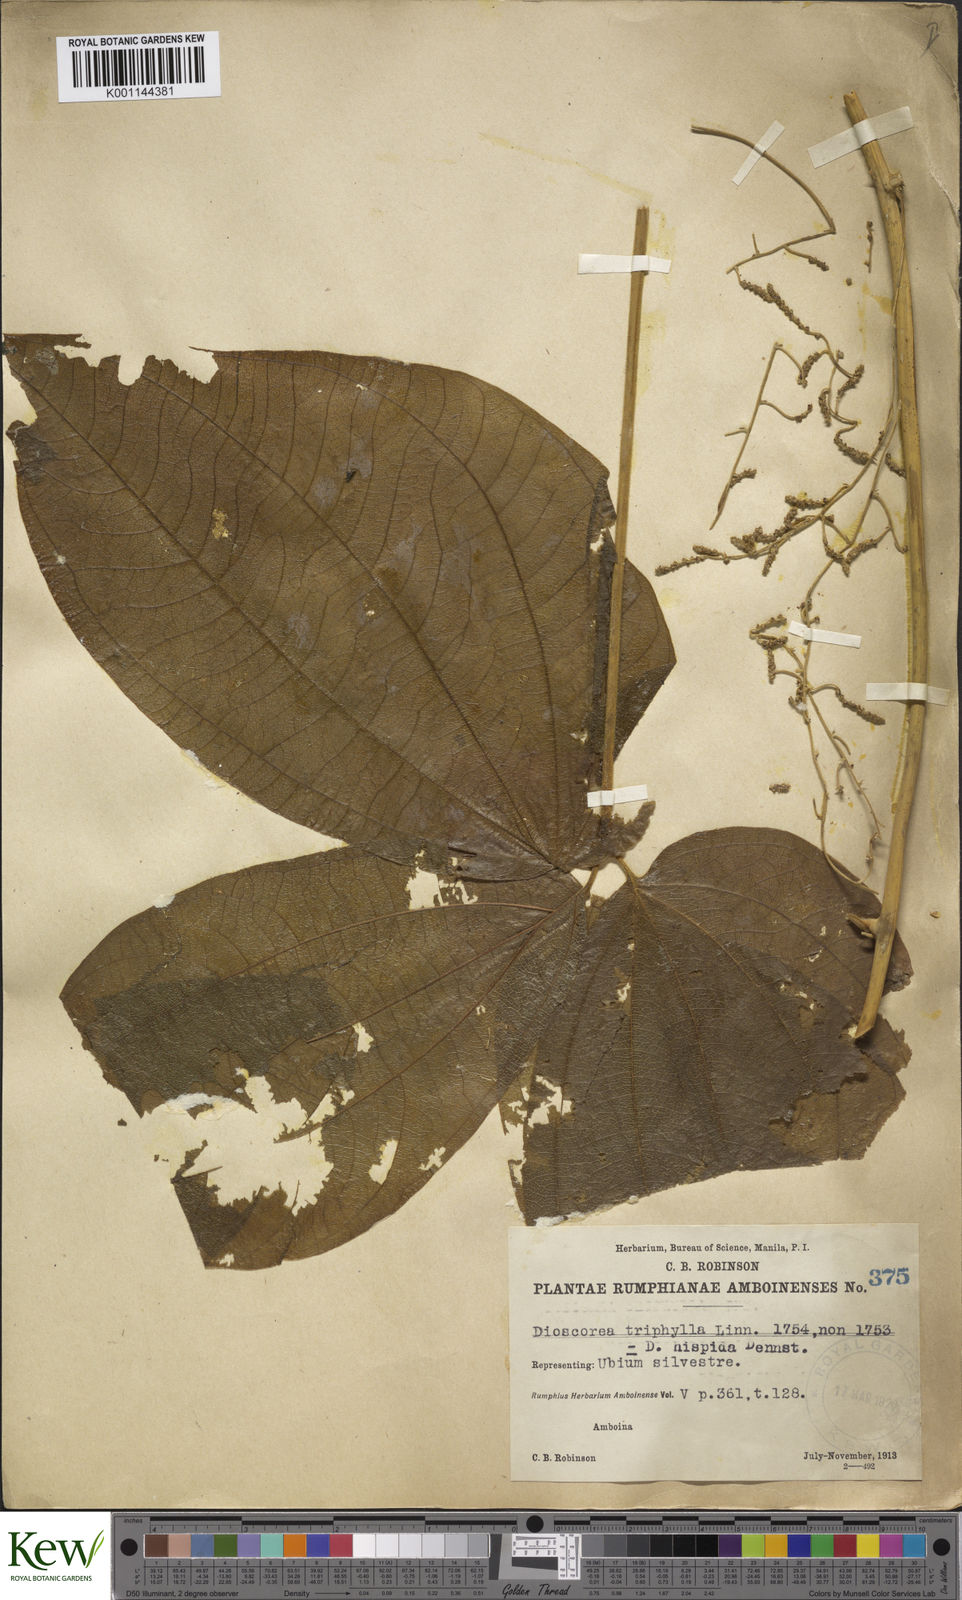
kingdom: Plantae
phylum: Tracheophyta
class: Liliopsida
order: Dioscoreales
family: Dioscoreaceae
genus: Dioscorea
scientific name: Dioscorea hispida
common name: Asiatic bitter yam
